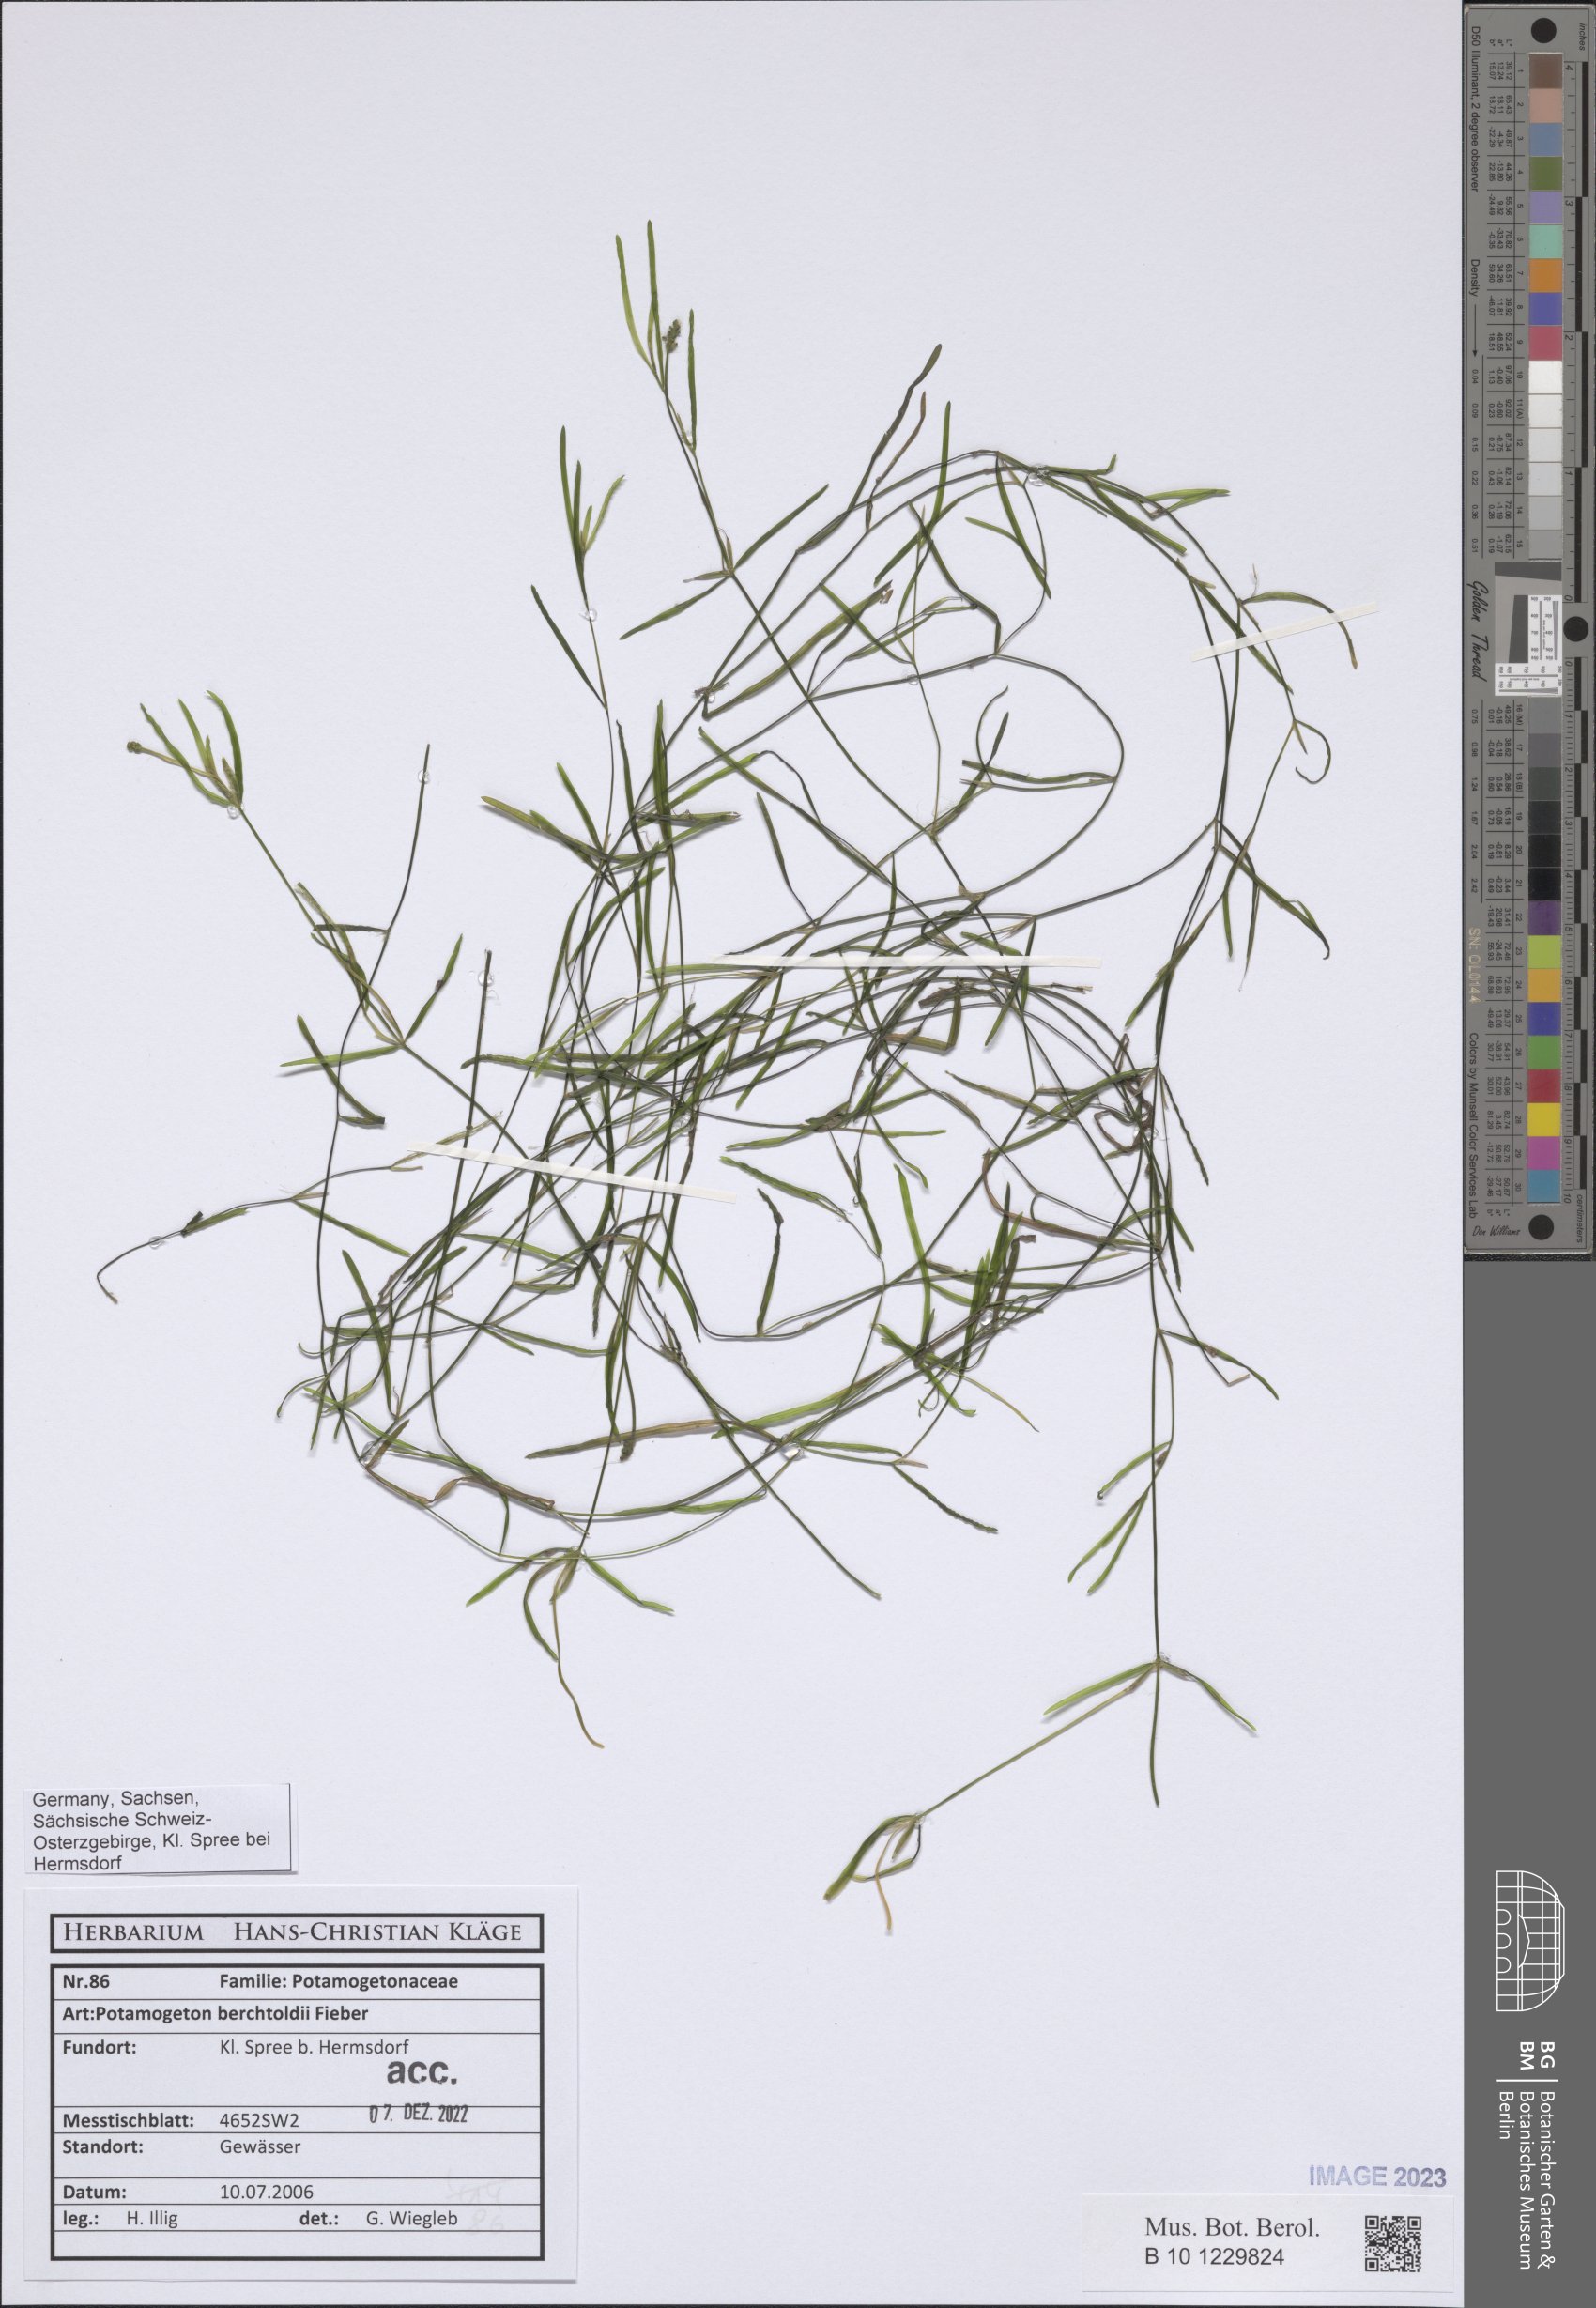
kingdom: Plantae
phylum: Tracheophyta
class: Liliopsida
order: Alismatales
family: Potamogetonaceae
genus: Potamogeton
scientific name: Potamogeton berchtoldii
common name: Small pondweed
